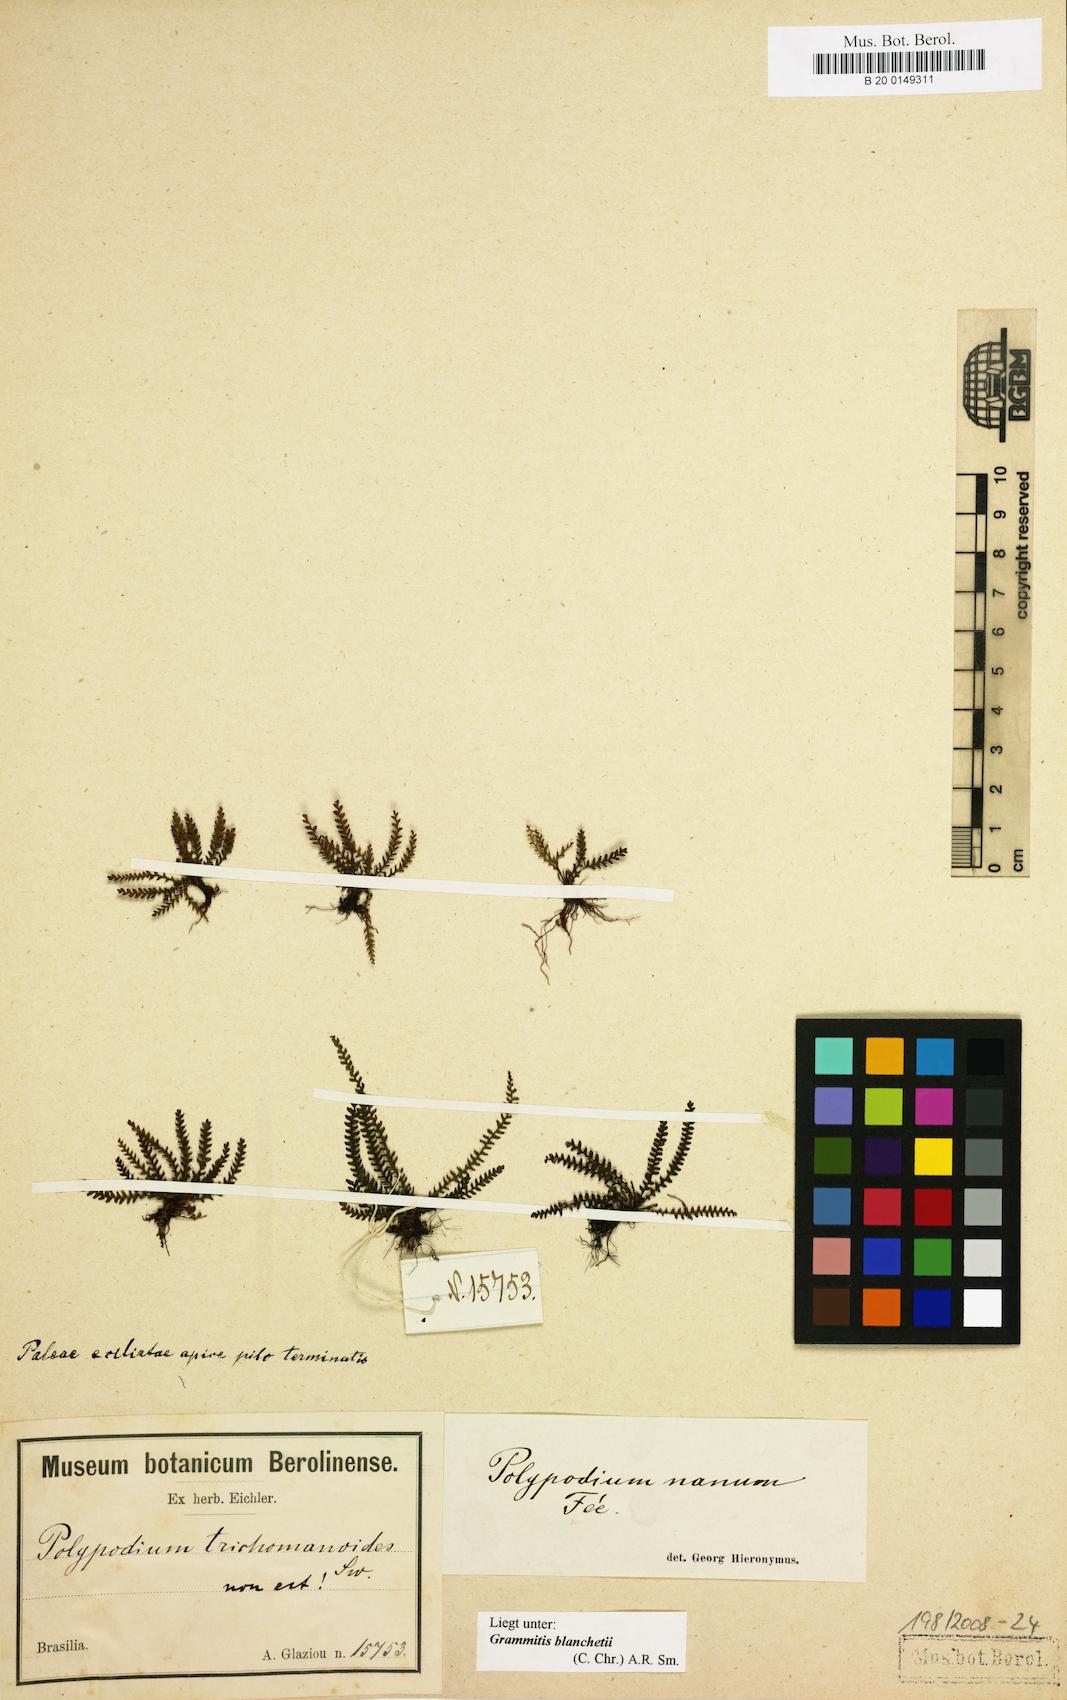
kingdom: Plantae
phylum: Tracheophyta
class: Polypodiopsida
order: Polypodiales
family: Polypodiaceae
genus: Moranopteris
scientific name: Moranopteris nana
